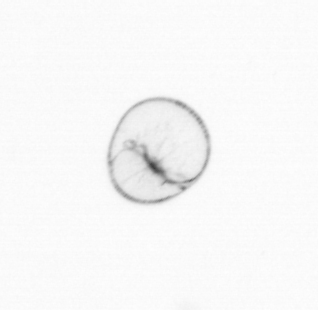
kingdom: Chromista
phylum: Myzozoa
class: Dinophyceae
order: Noctilucales
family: Noctilucaceae
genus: Noctiluca
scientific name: Noctiluca scintillans
